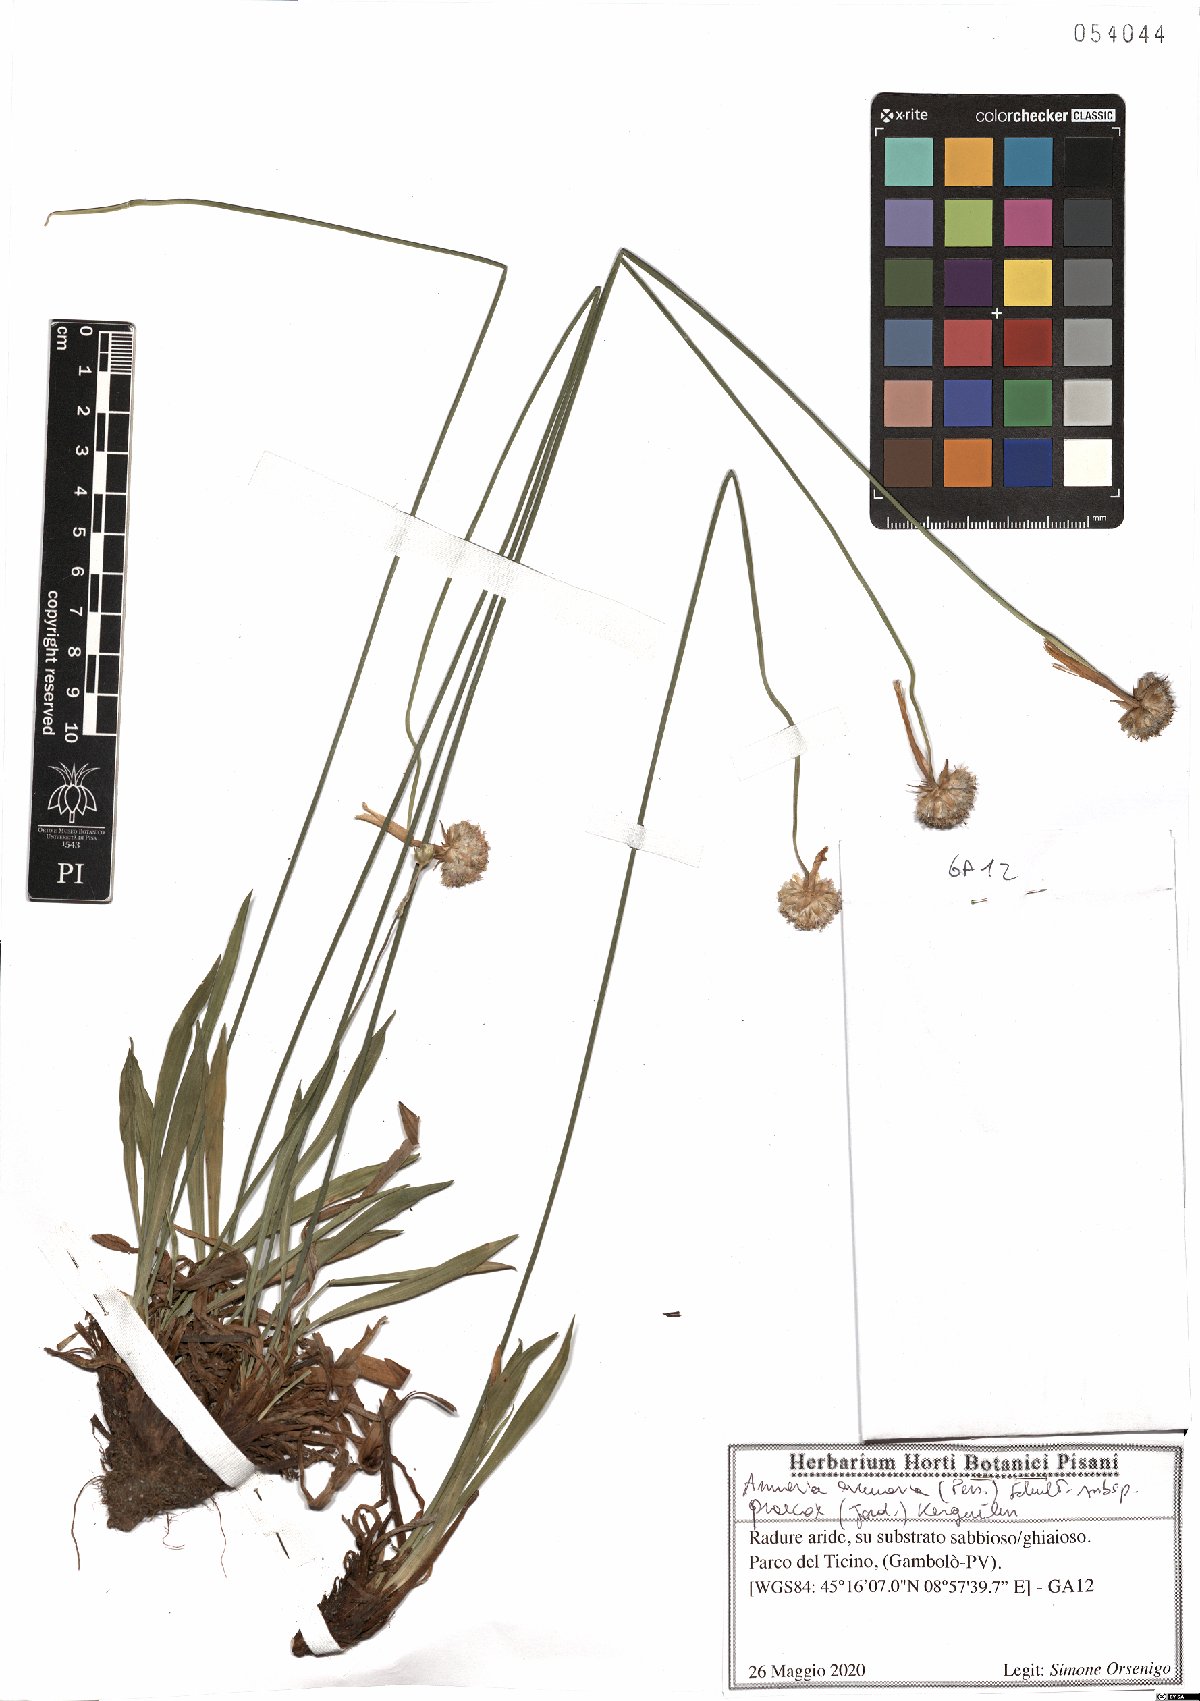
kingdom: Plantae
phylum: Tracheophyta
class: Magnoliopsida
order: Caryophyllales
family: Plumbaginaceae
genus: Armeria
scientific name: Armeria arenaria
